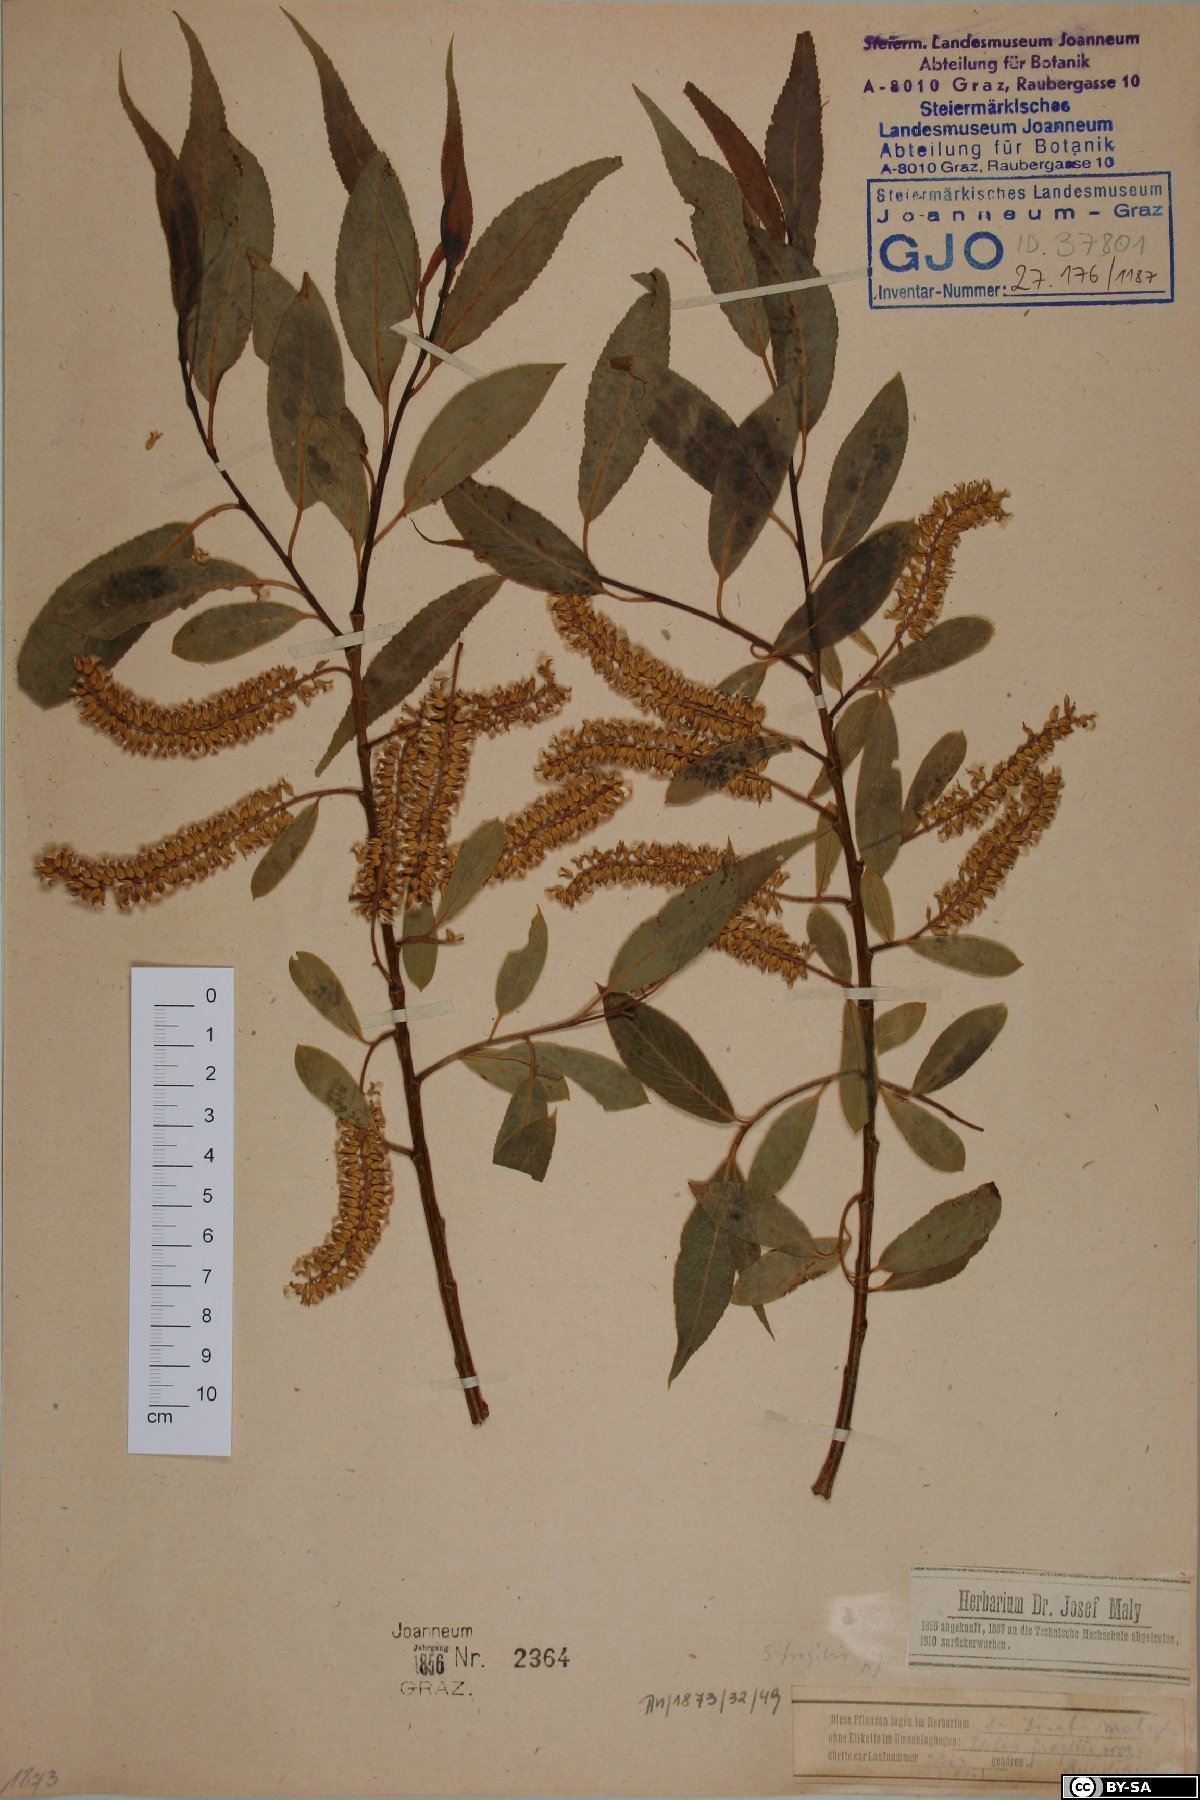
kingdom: Plantae
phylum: Tracheophyta
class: Magnoliopsida
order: Malpighiales
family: Salicaceae
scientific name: Salicaceae
